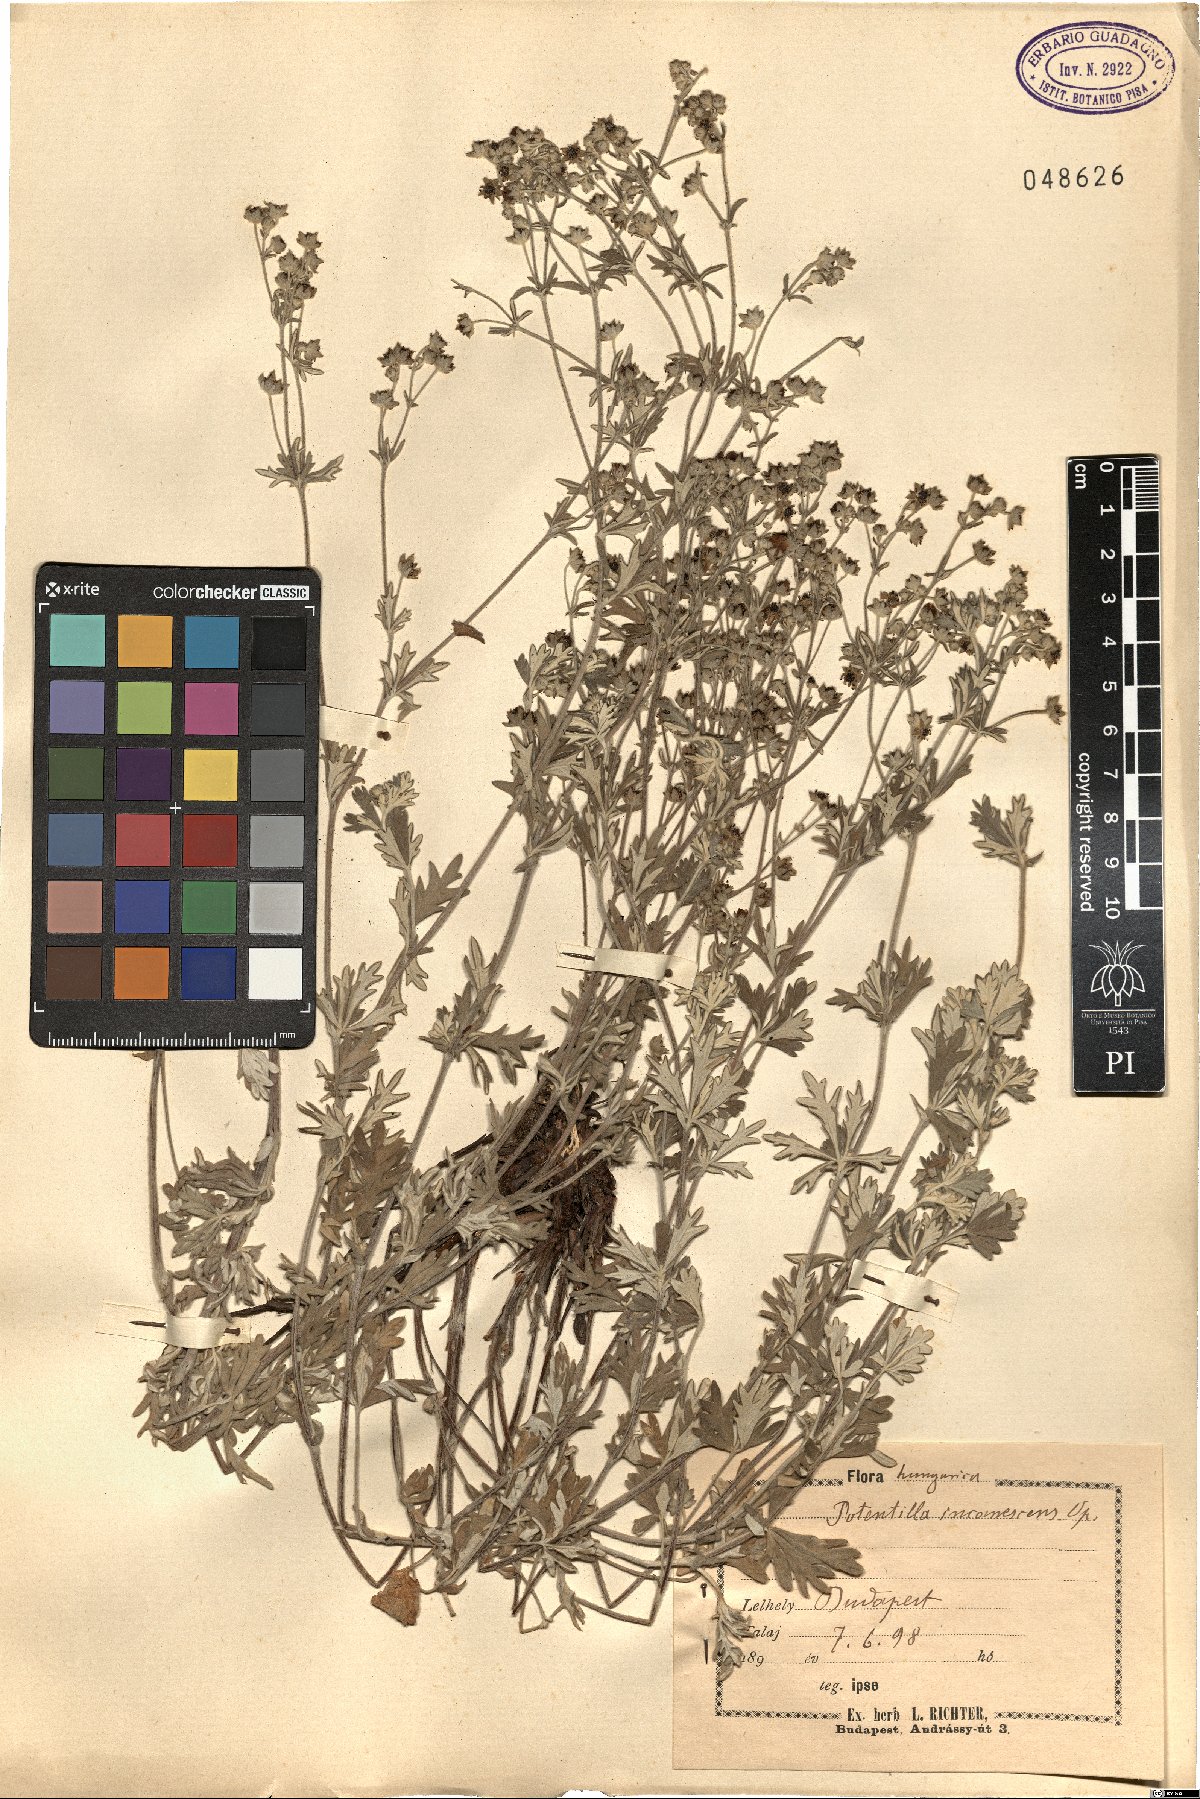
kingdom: Plantae
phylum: Tracheophyta
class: Magnoliopsida
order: Rosales
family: Rosaceae
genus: Potentilla
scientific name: Potentilla neglecta
